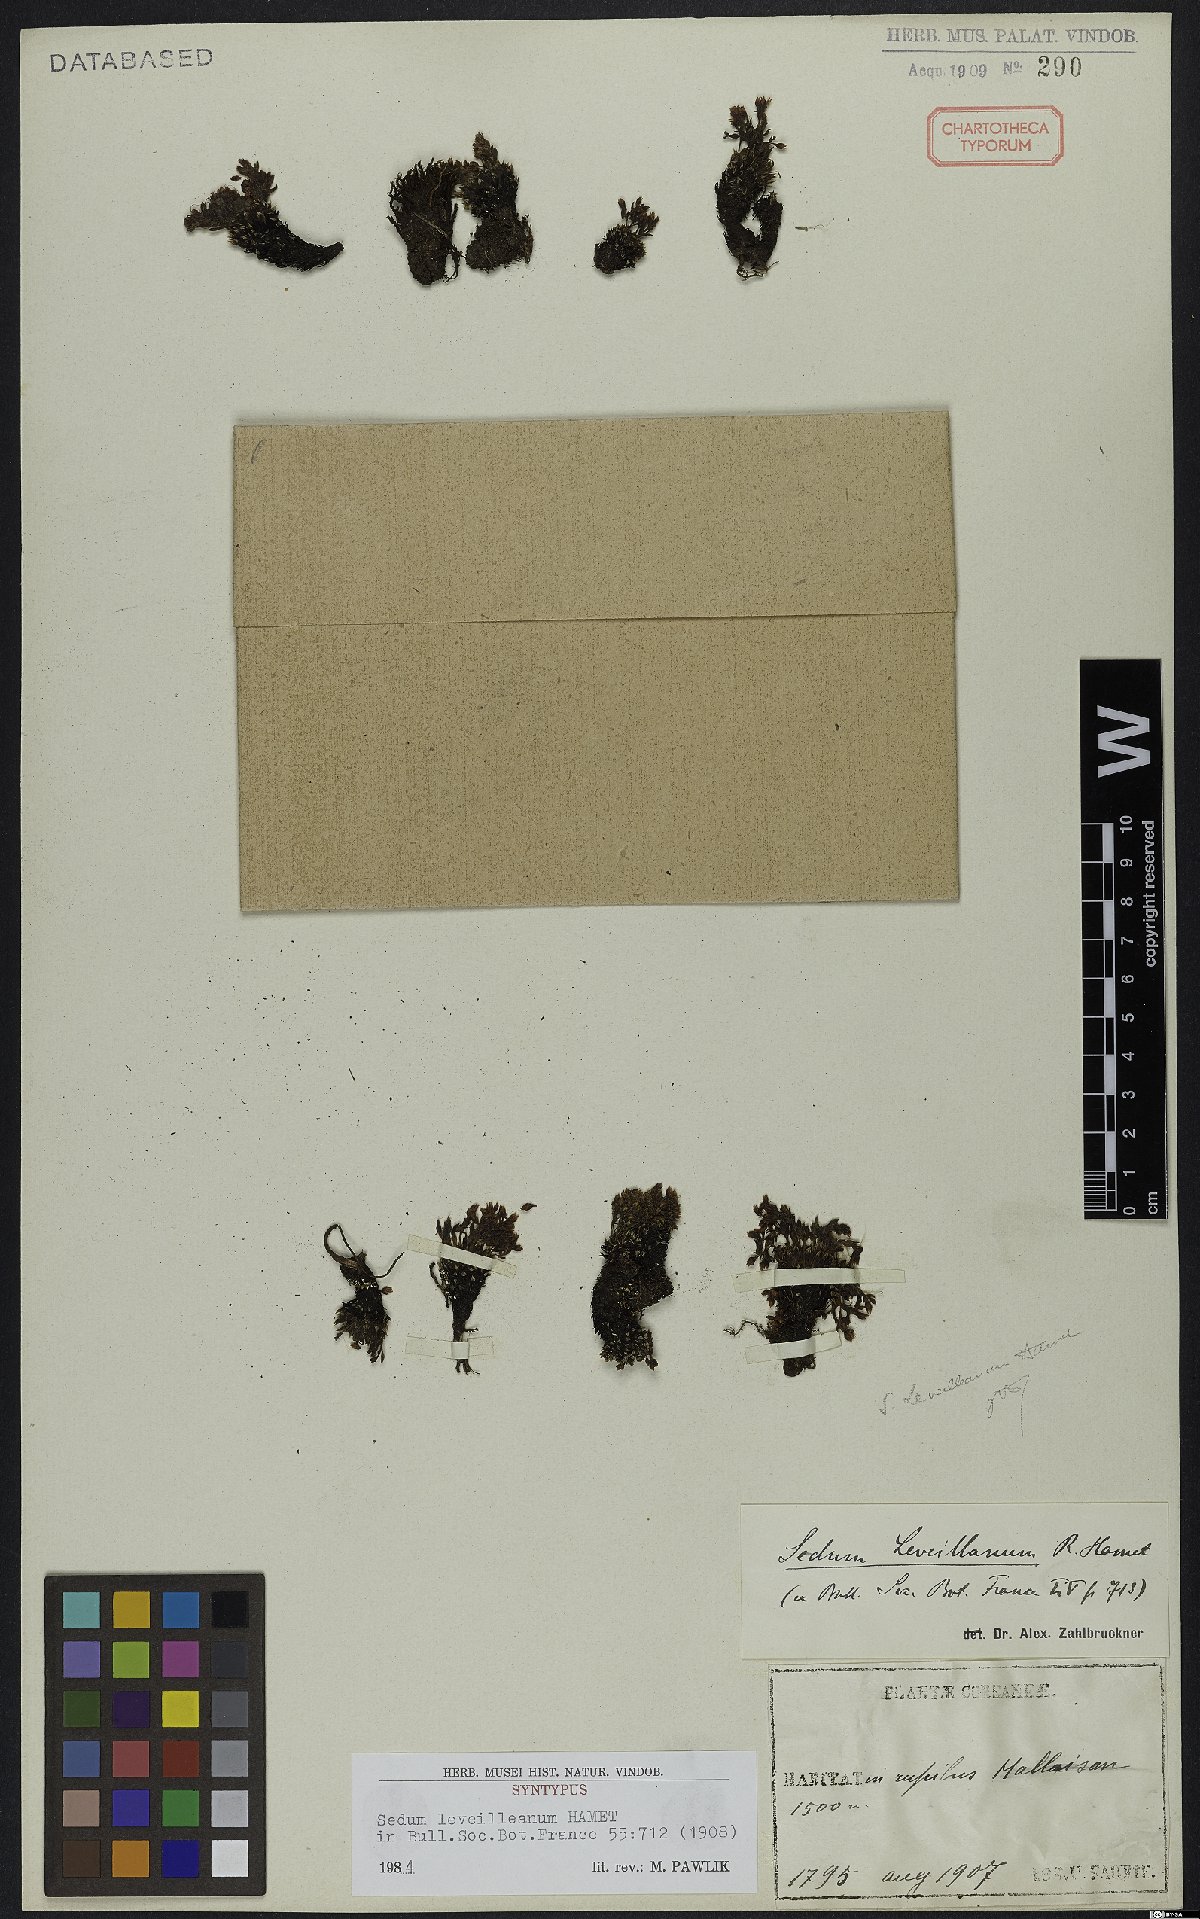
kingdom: Plantae
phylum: Tracheophyta
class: Magnoliopsida
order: Saxifragales
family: Crassulaceae
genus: Meterostachys
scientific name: Meterostachys sikokianus
